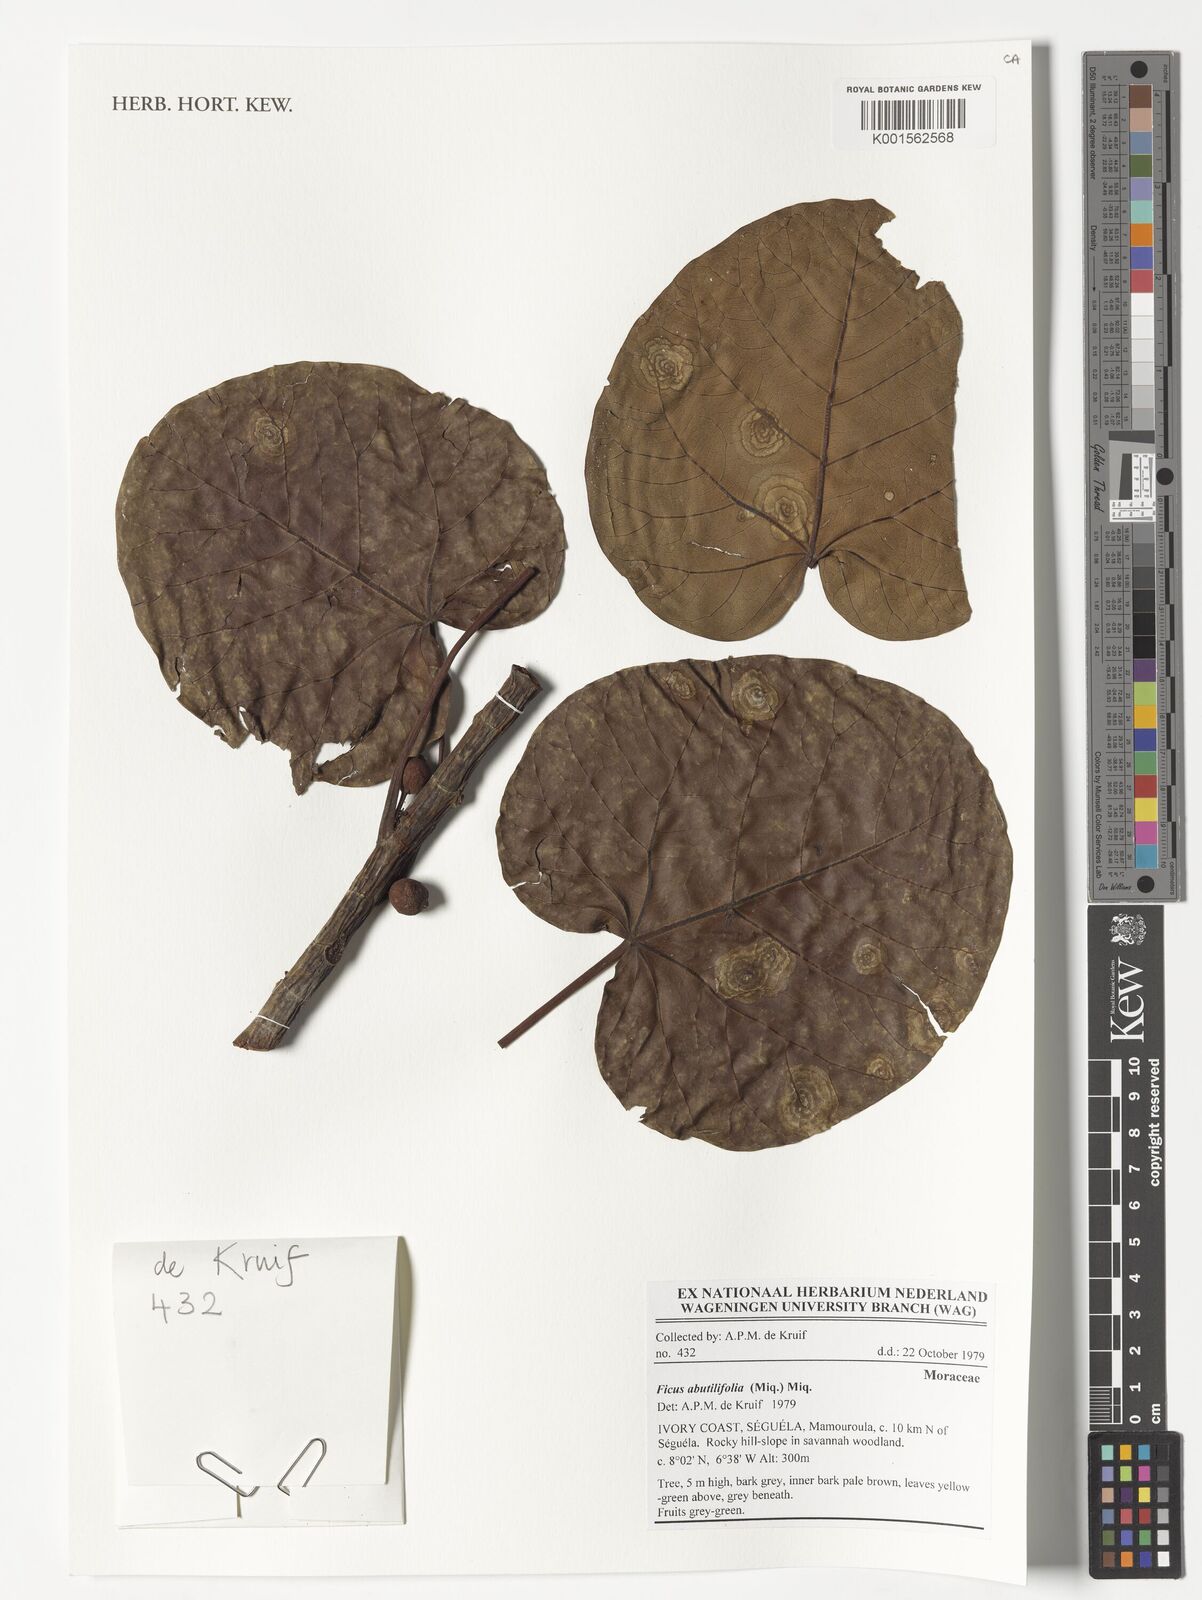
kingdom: Plantae
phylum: Tracheophyta
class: Magnoliopsida
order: Rosales
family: Moraceae
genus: Ficus
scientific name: Ficus abutilifolia
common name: Large-leaved rock fig
